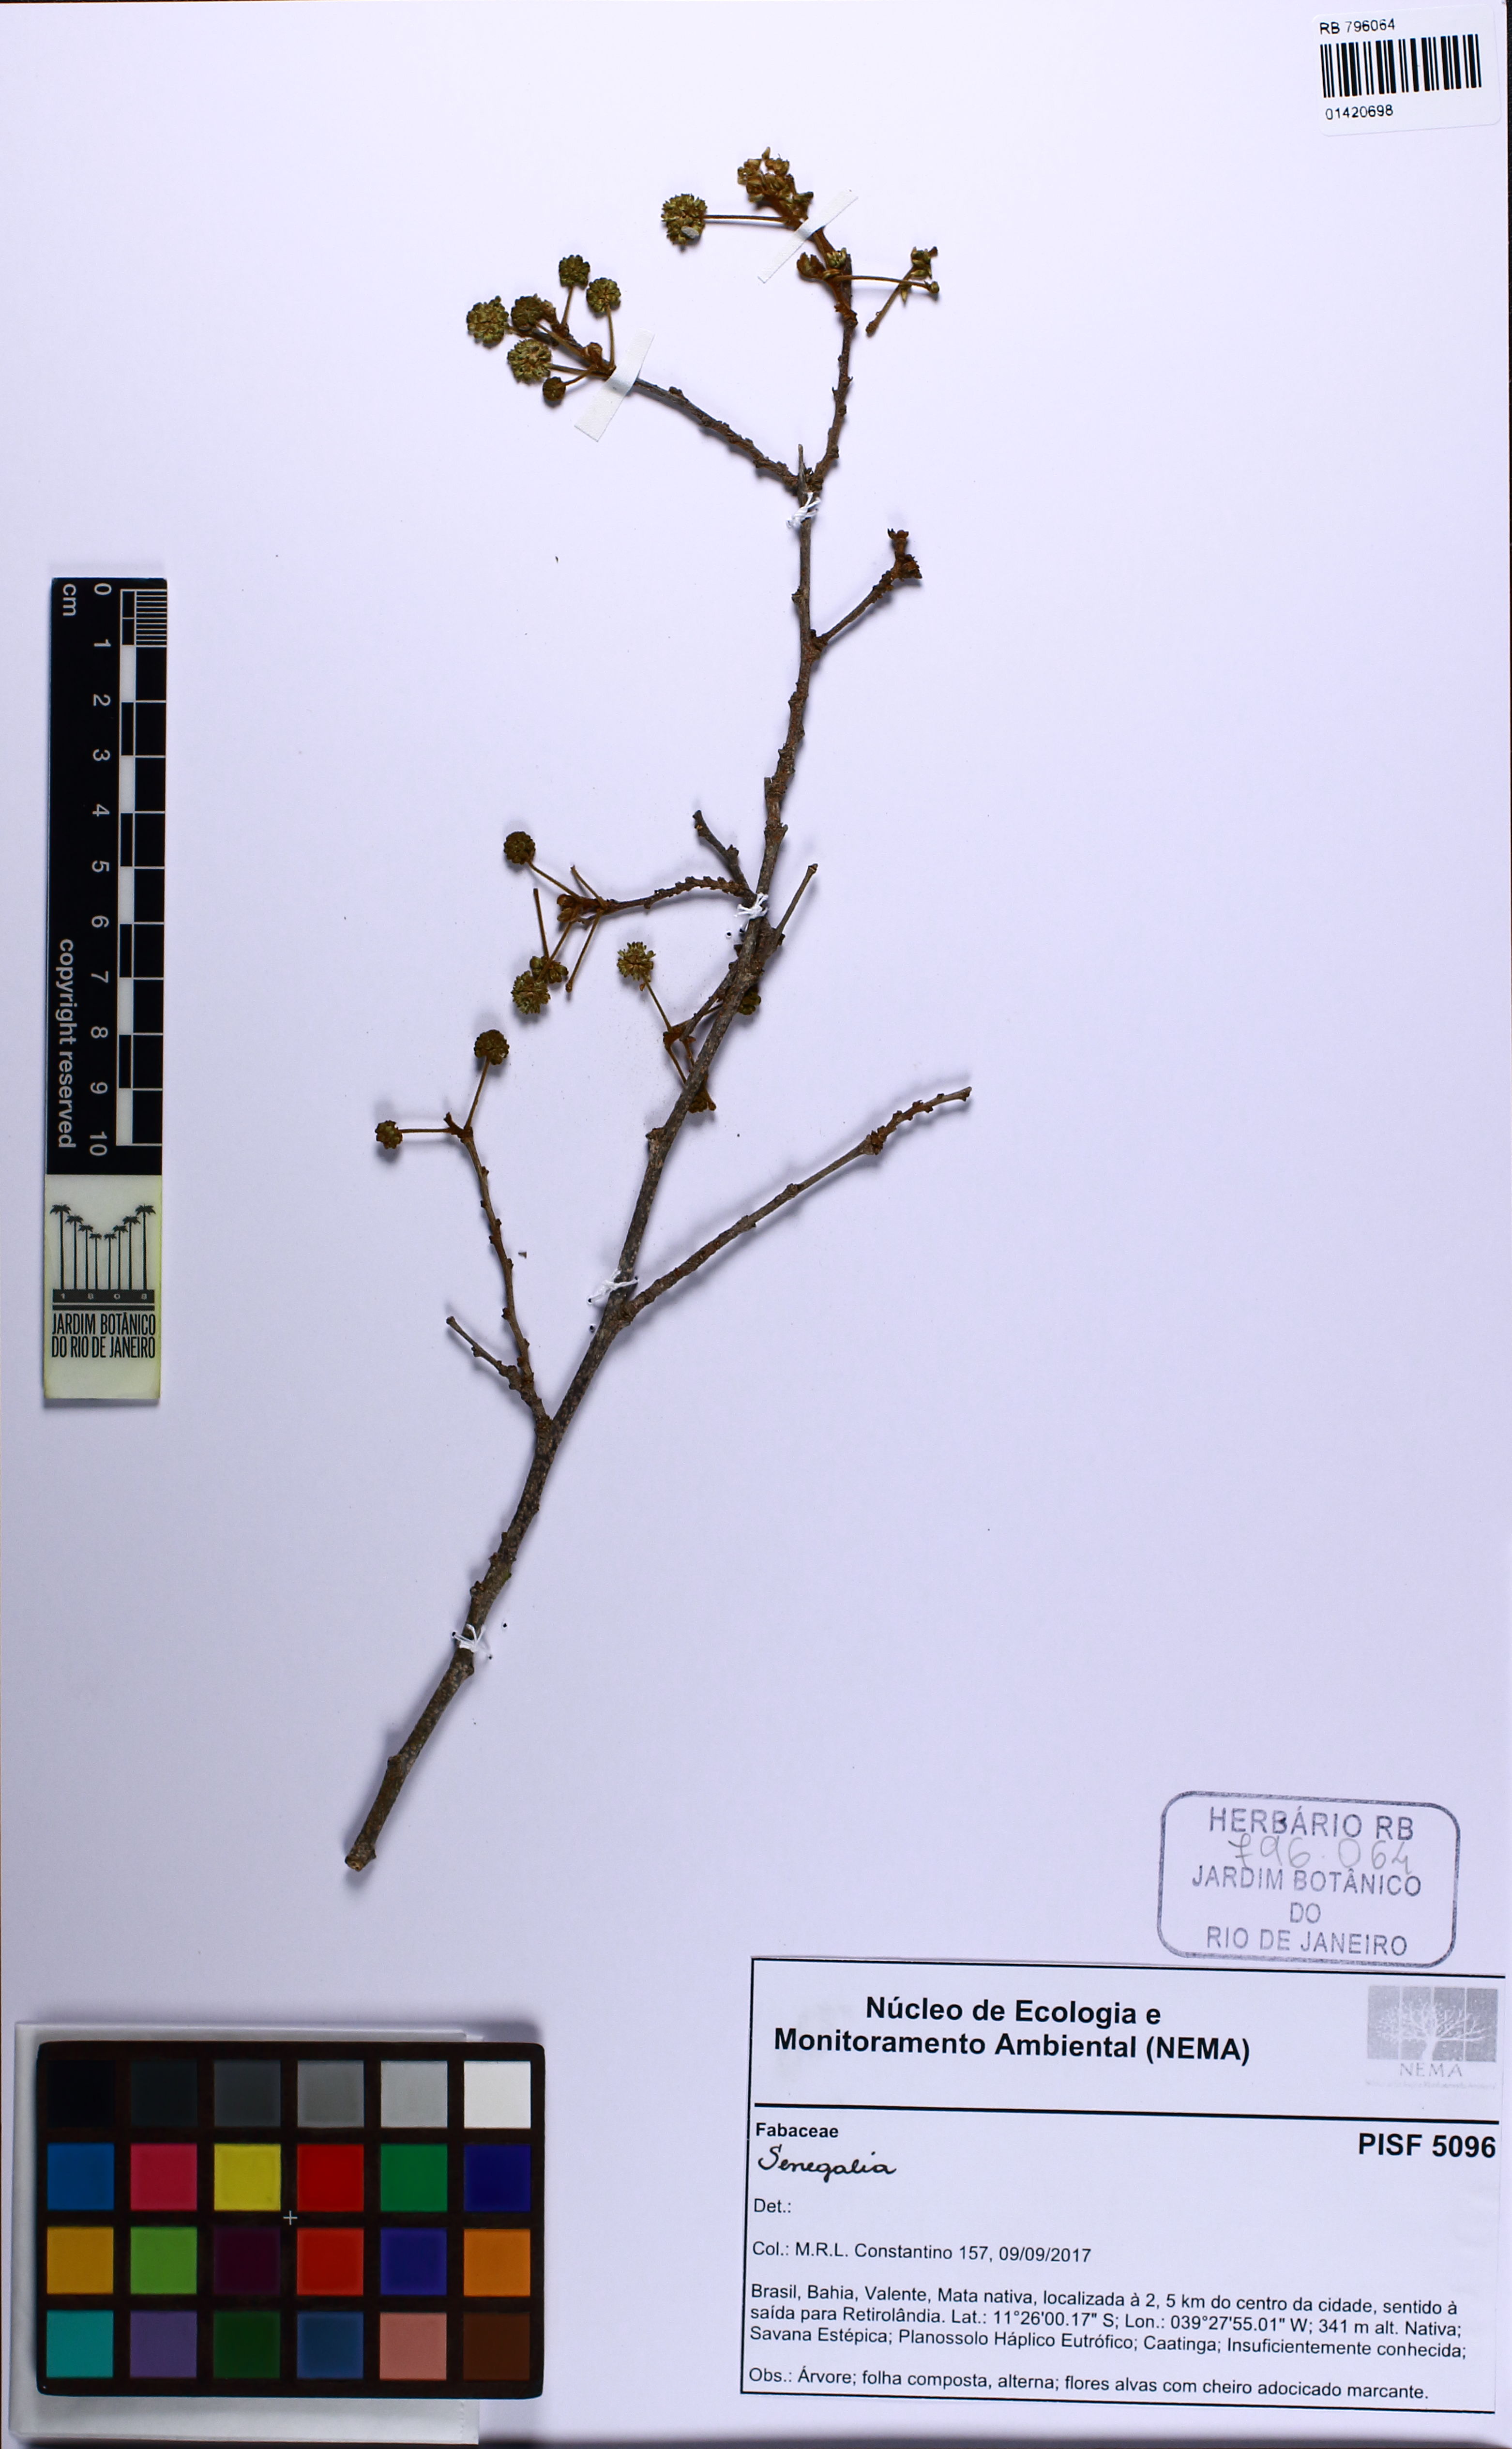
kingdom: Plantae
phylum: Tracheophyta
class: Magnoliopsida
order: Fabales
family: Fabaceae
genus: Senegalia
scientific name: Senegalia
